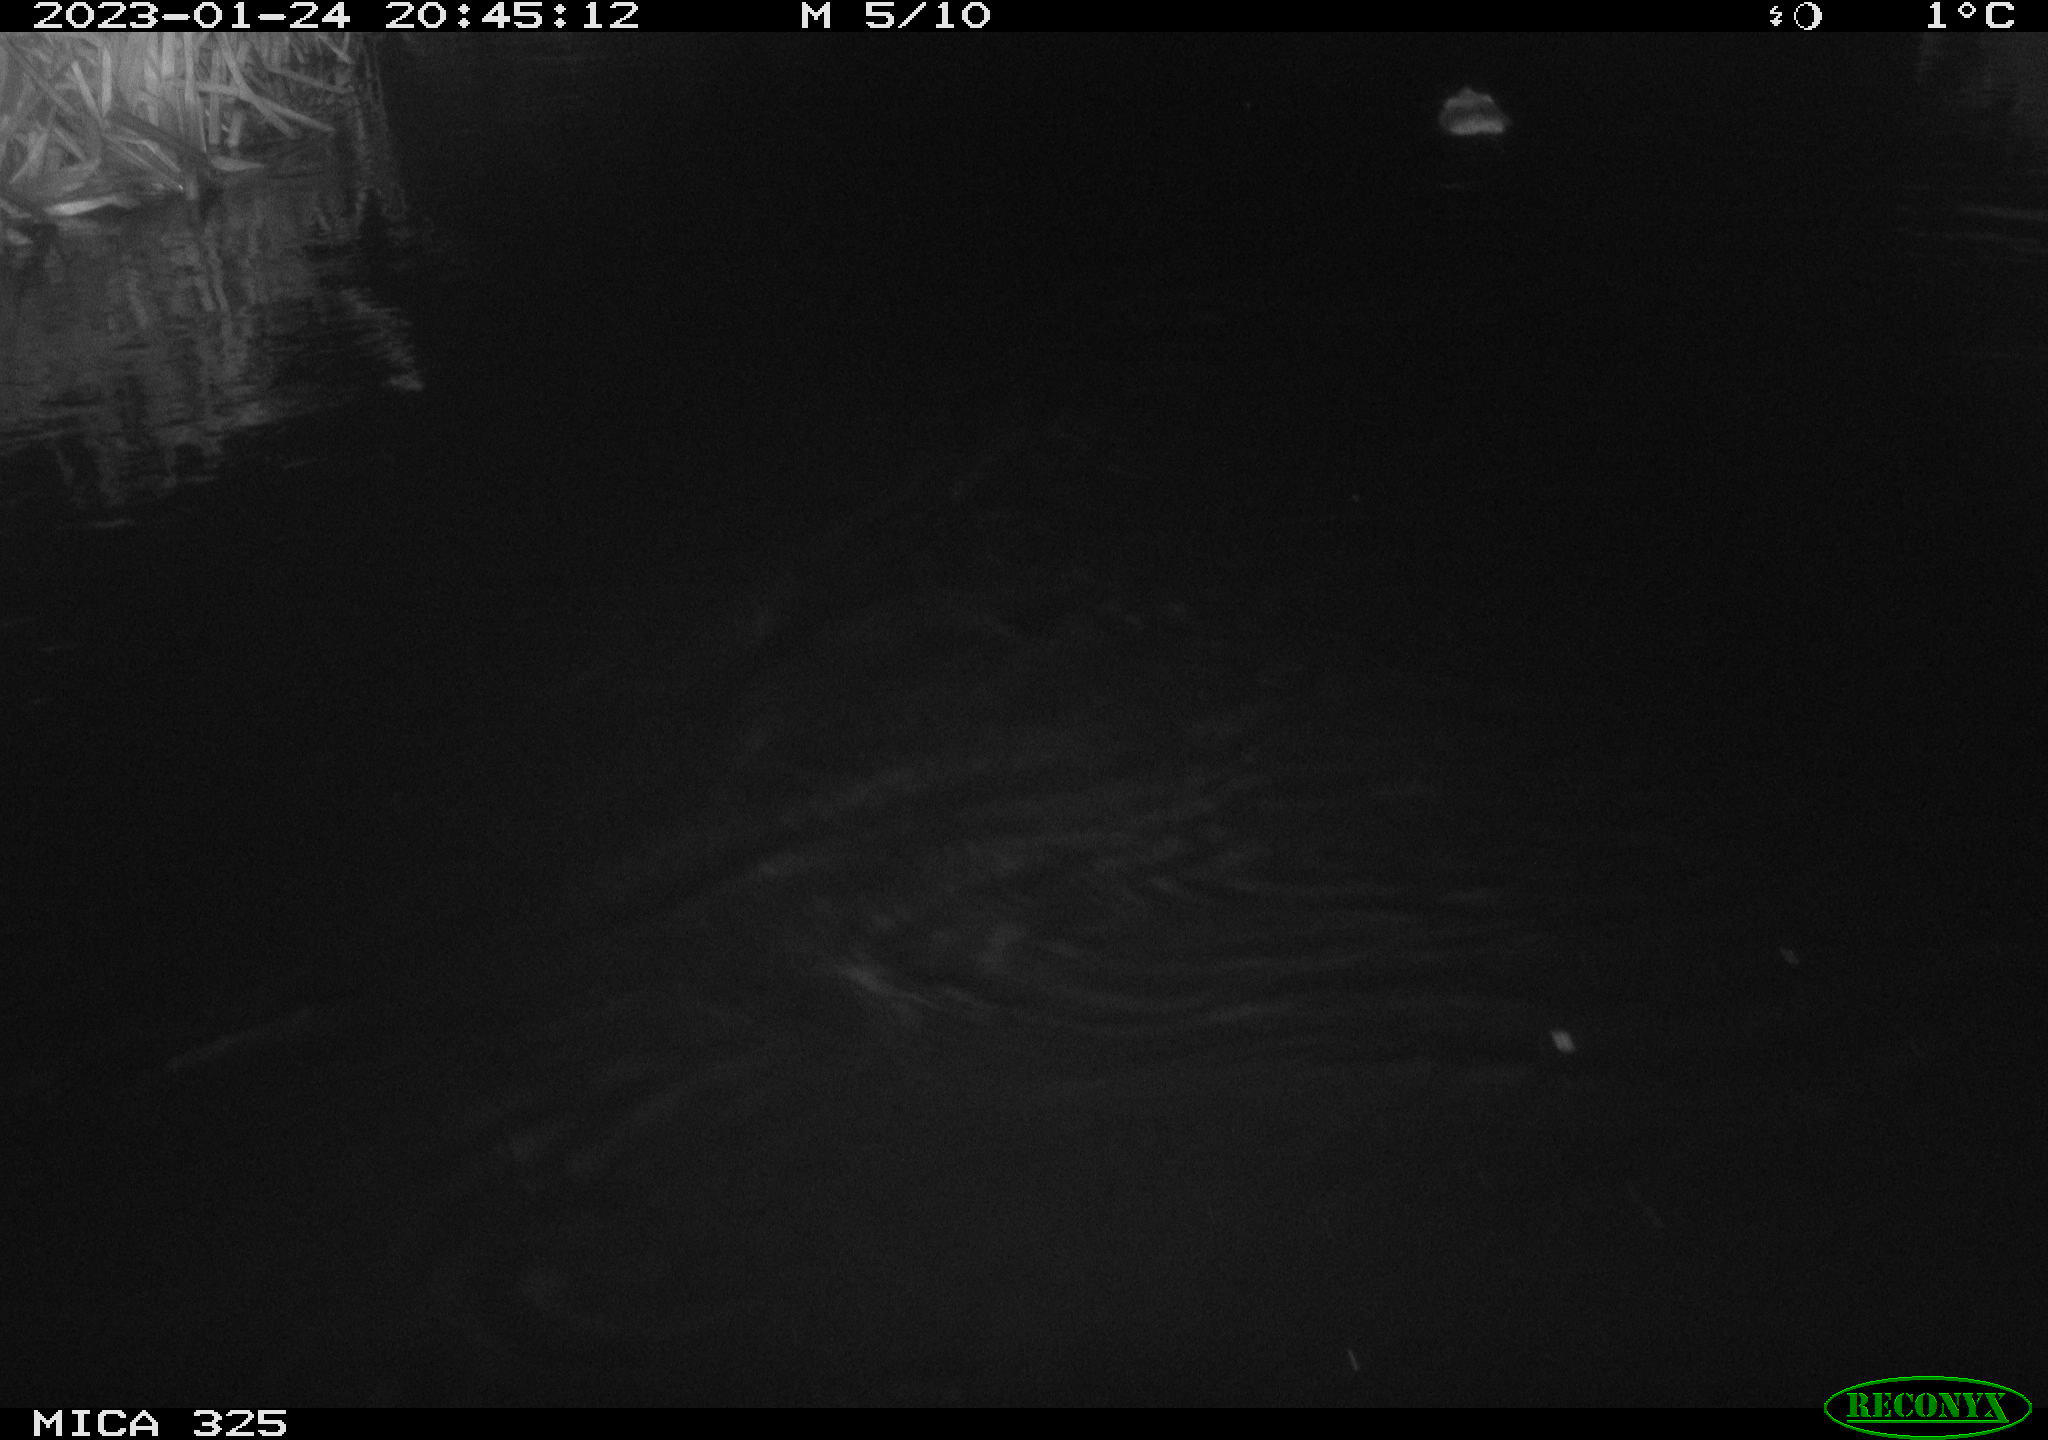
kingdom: Animalia
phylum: Chordata
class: Mammalia
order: Rodentia
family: Cricetidae
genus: Ondatra
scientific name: Ondatra zibethicus
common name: Muskrat
